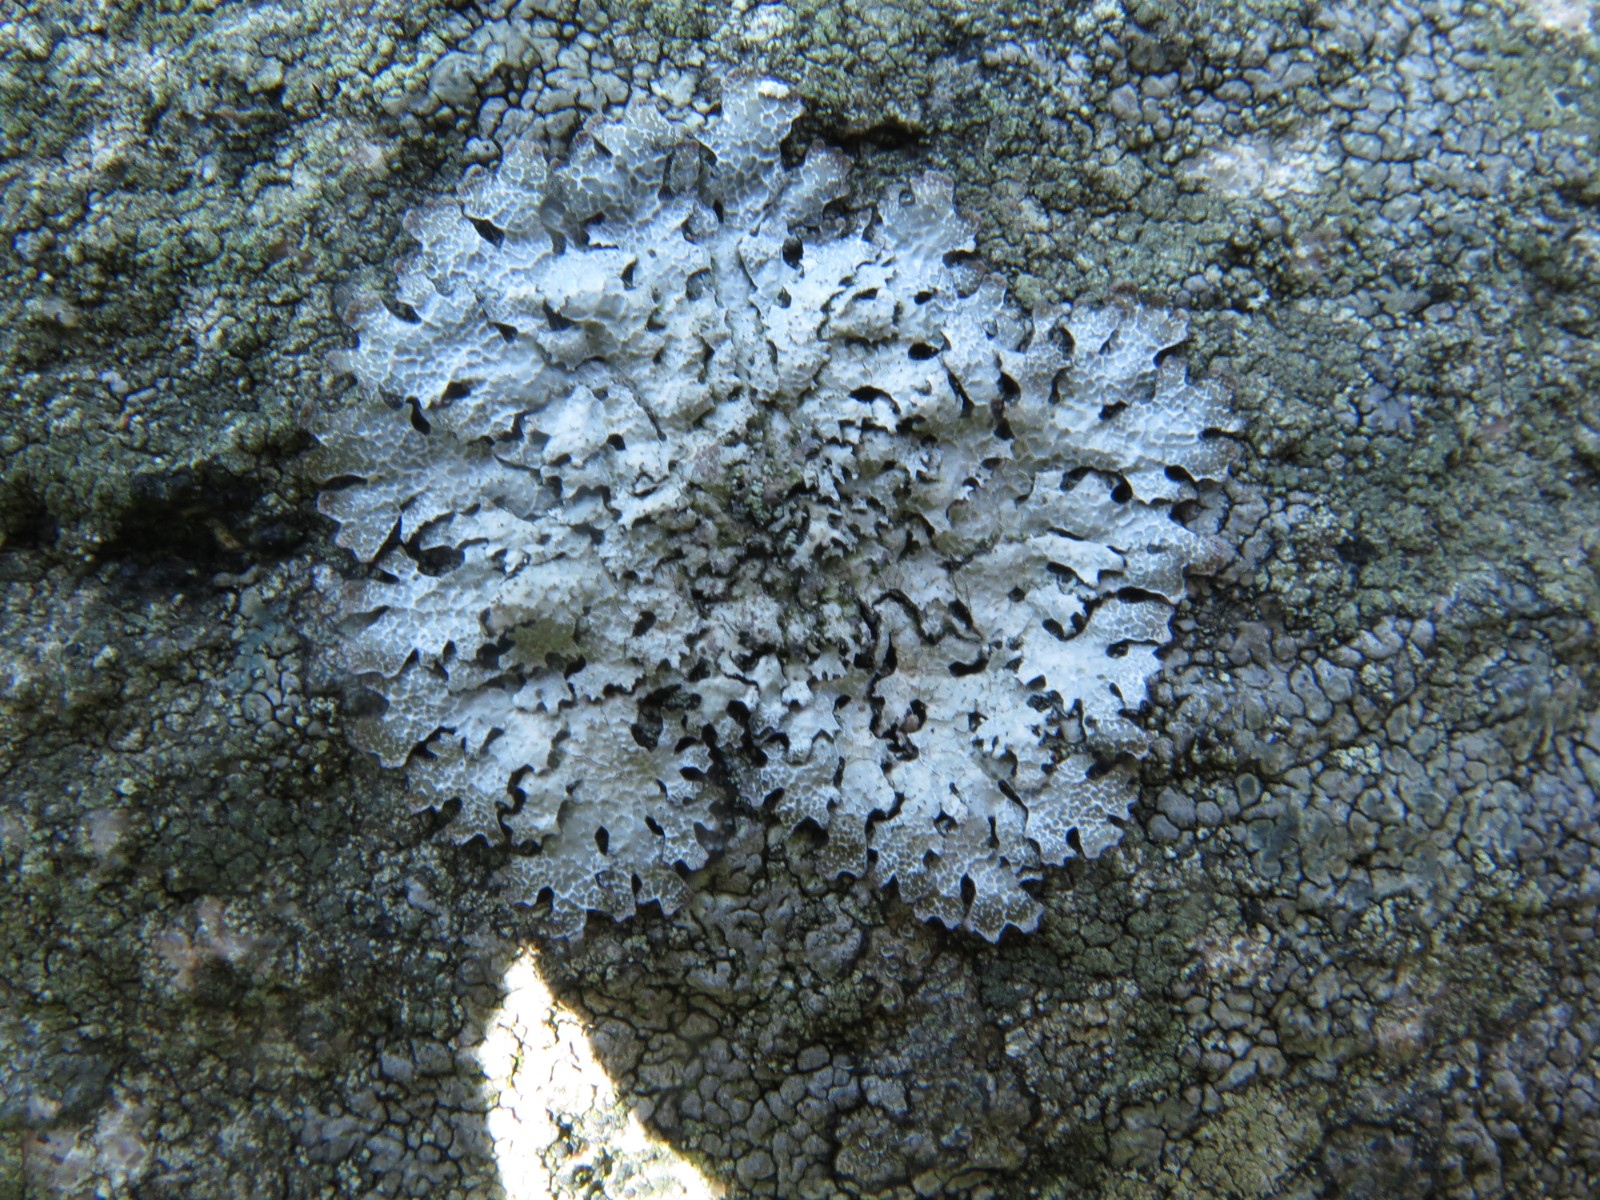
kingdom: Fungi
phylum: Ascomycota
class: Lecanoromycetes
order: Lecanorales
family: Parmeliaceae
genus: Parmelia
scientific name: Parmelia saxatilis
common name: farve-skållav
